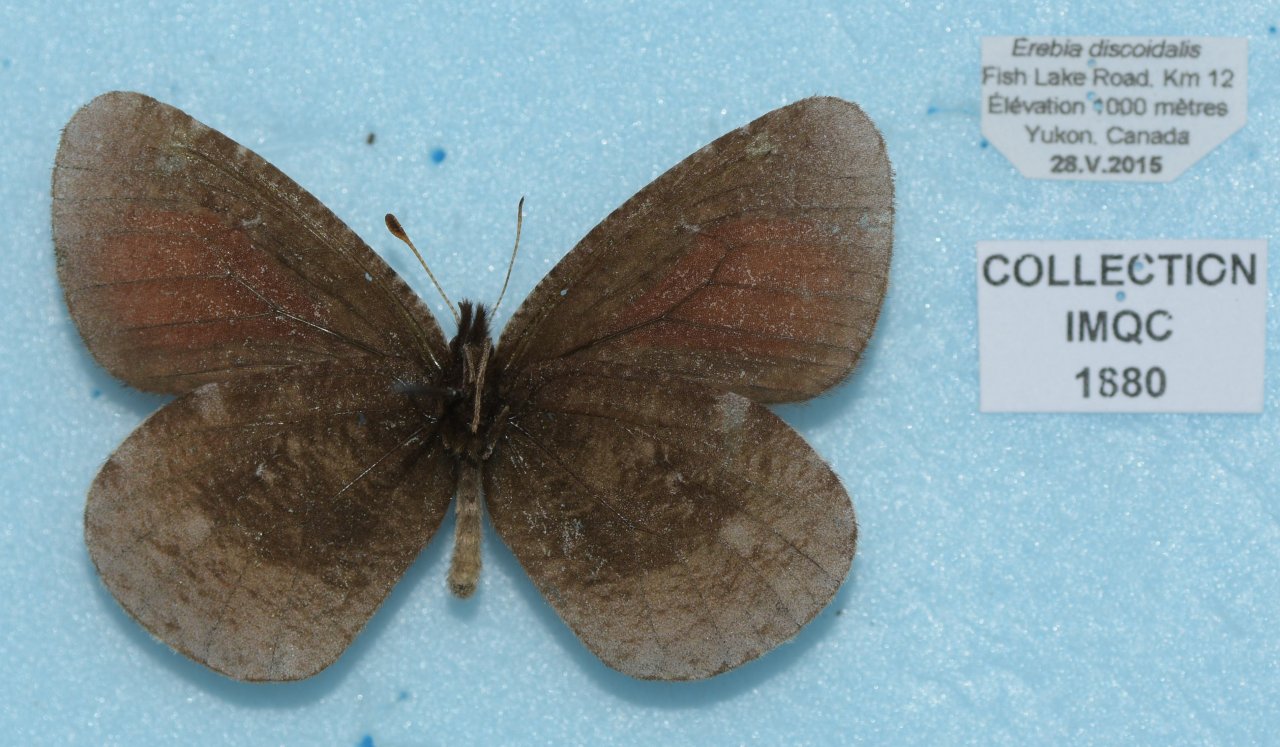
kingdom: Animalia
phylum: Arthropoda
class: Insecta
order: Lepidoptera
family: Nymphalidae
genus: Erebia
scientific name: Erebia discoidalis
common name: Red-disked Alpine
